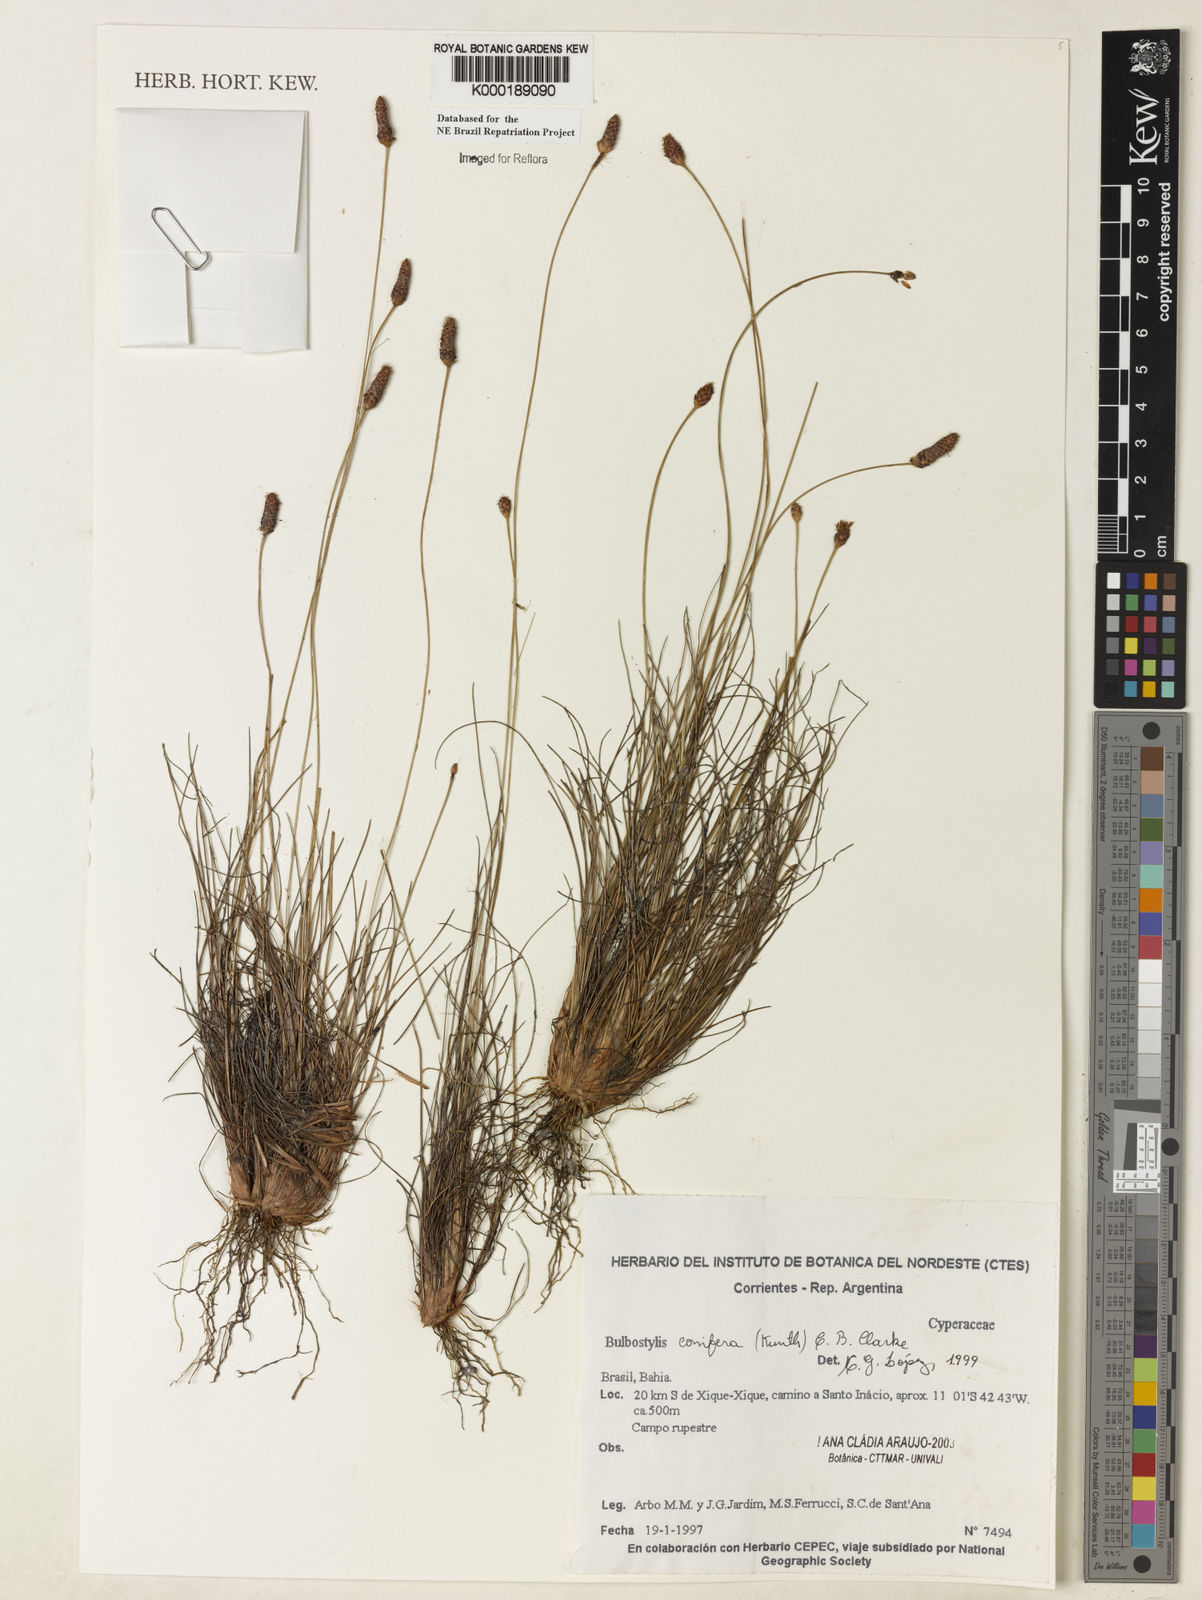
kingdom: Plantae
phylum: Tracheophyta
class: Liliopsida
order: Poales
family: Cyperaceae
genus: Bulbostylis
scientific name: Bulbostylis conifera
